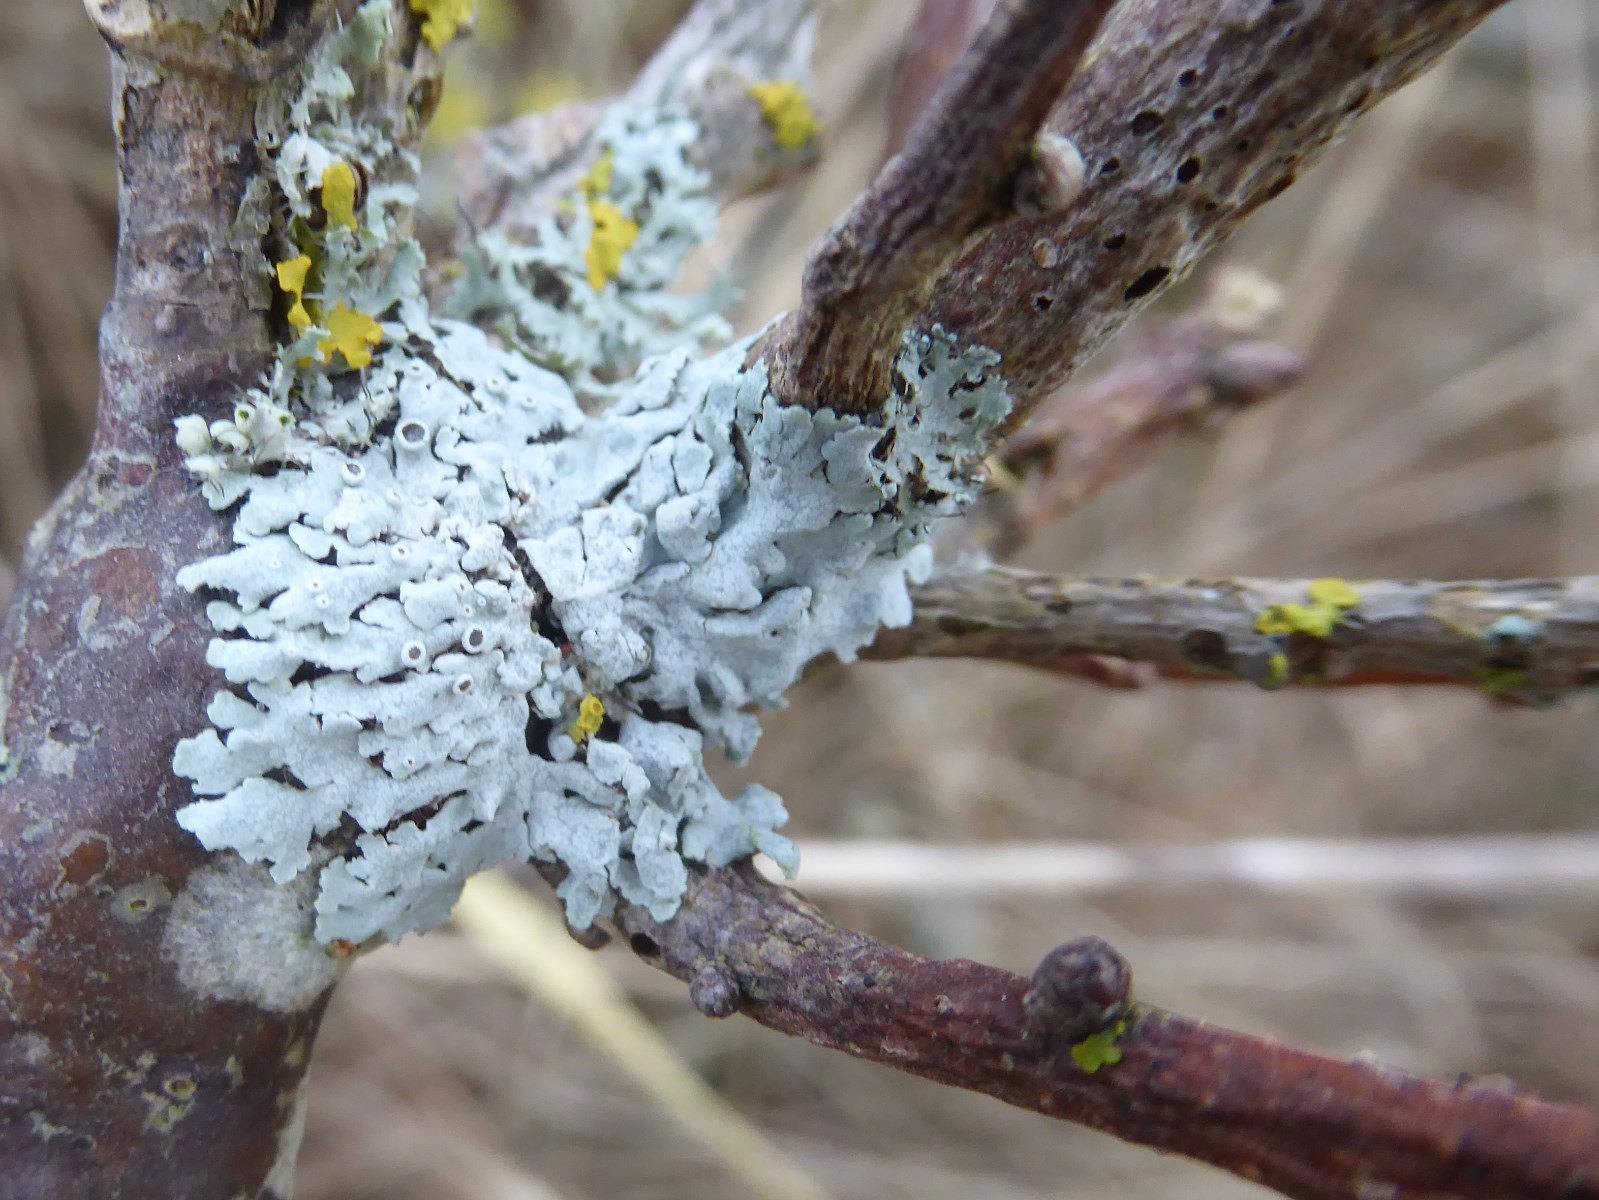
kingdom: Fungi
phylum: Ascomycota
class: Lecanoromycetes
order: Caliciales
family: Physciaceae
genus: Physcia
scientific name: Physcia aipolia
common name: hvidprikket rosetlav
